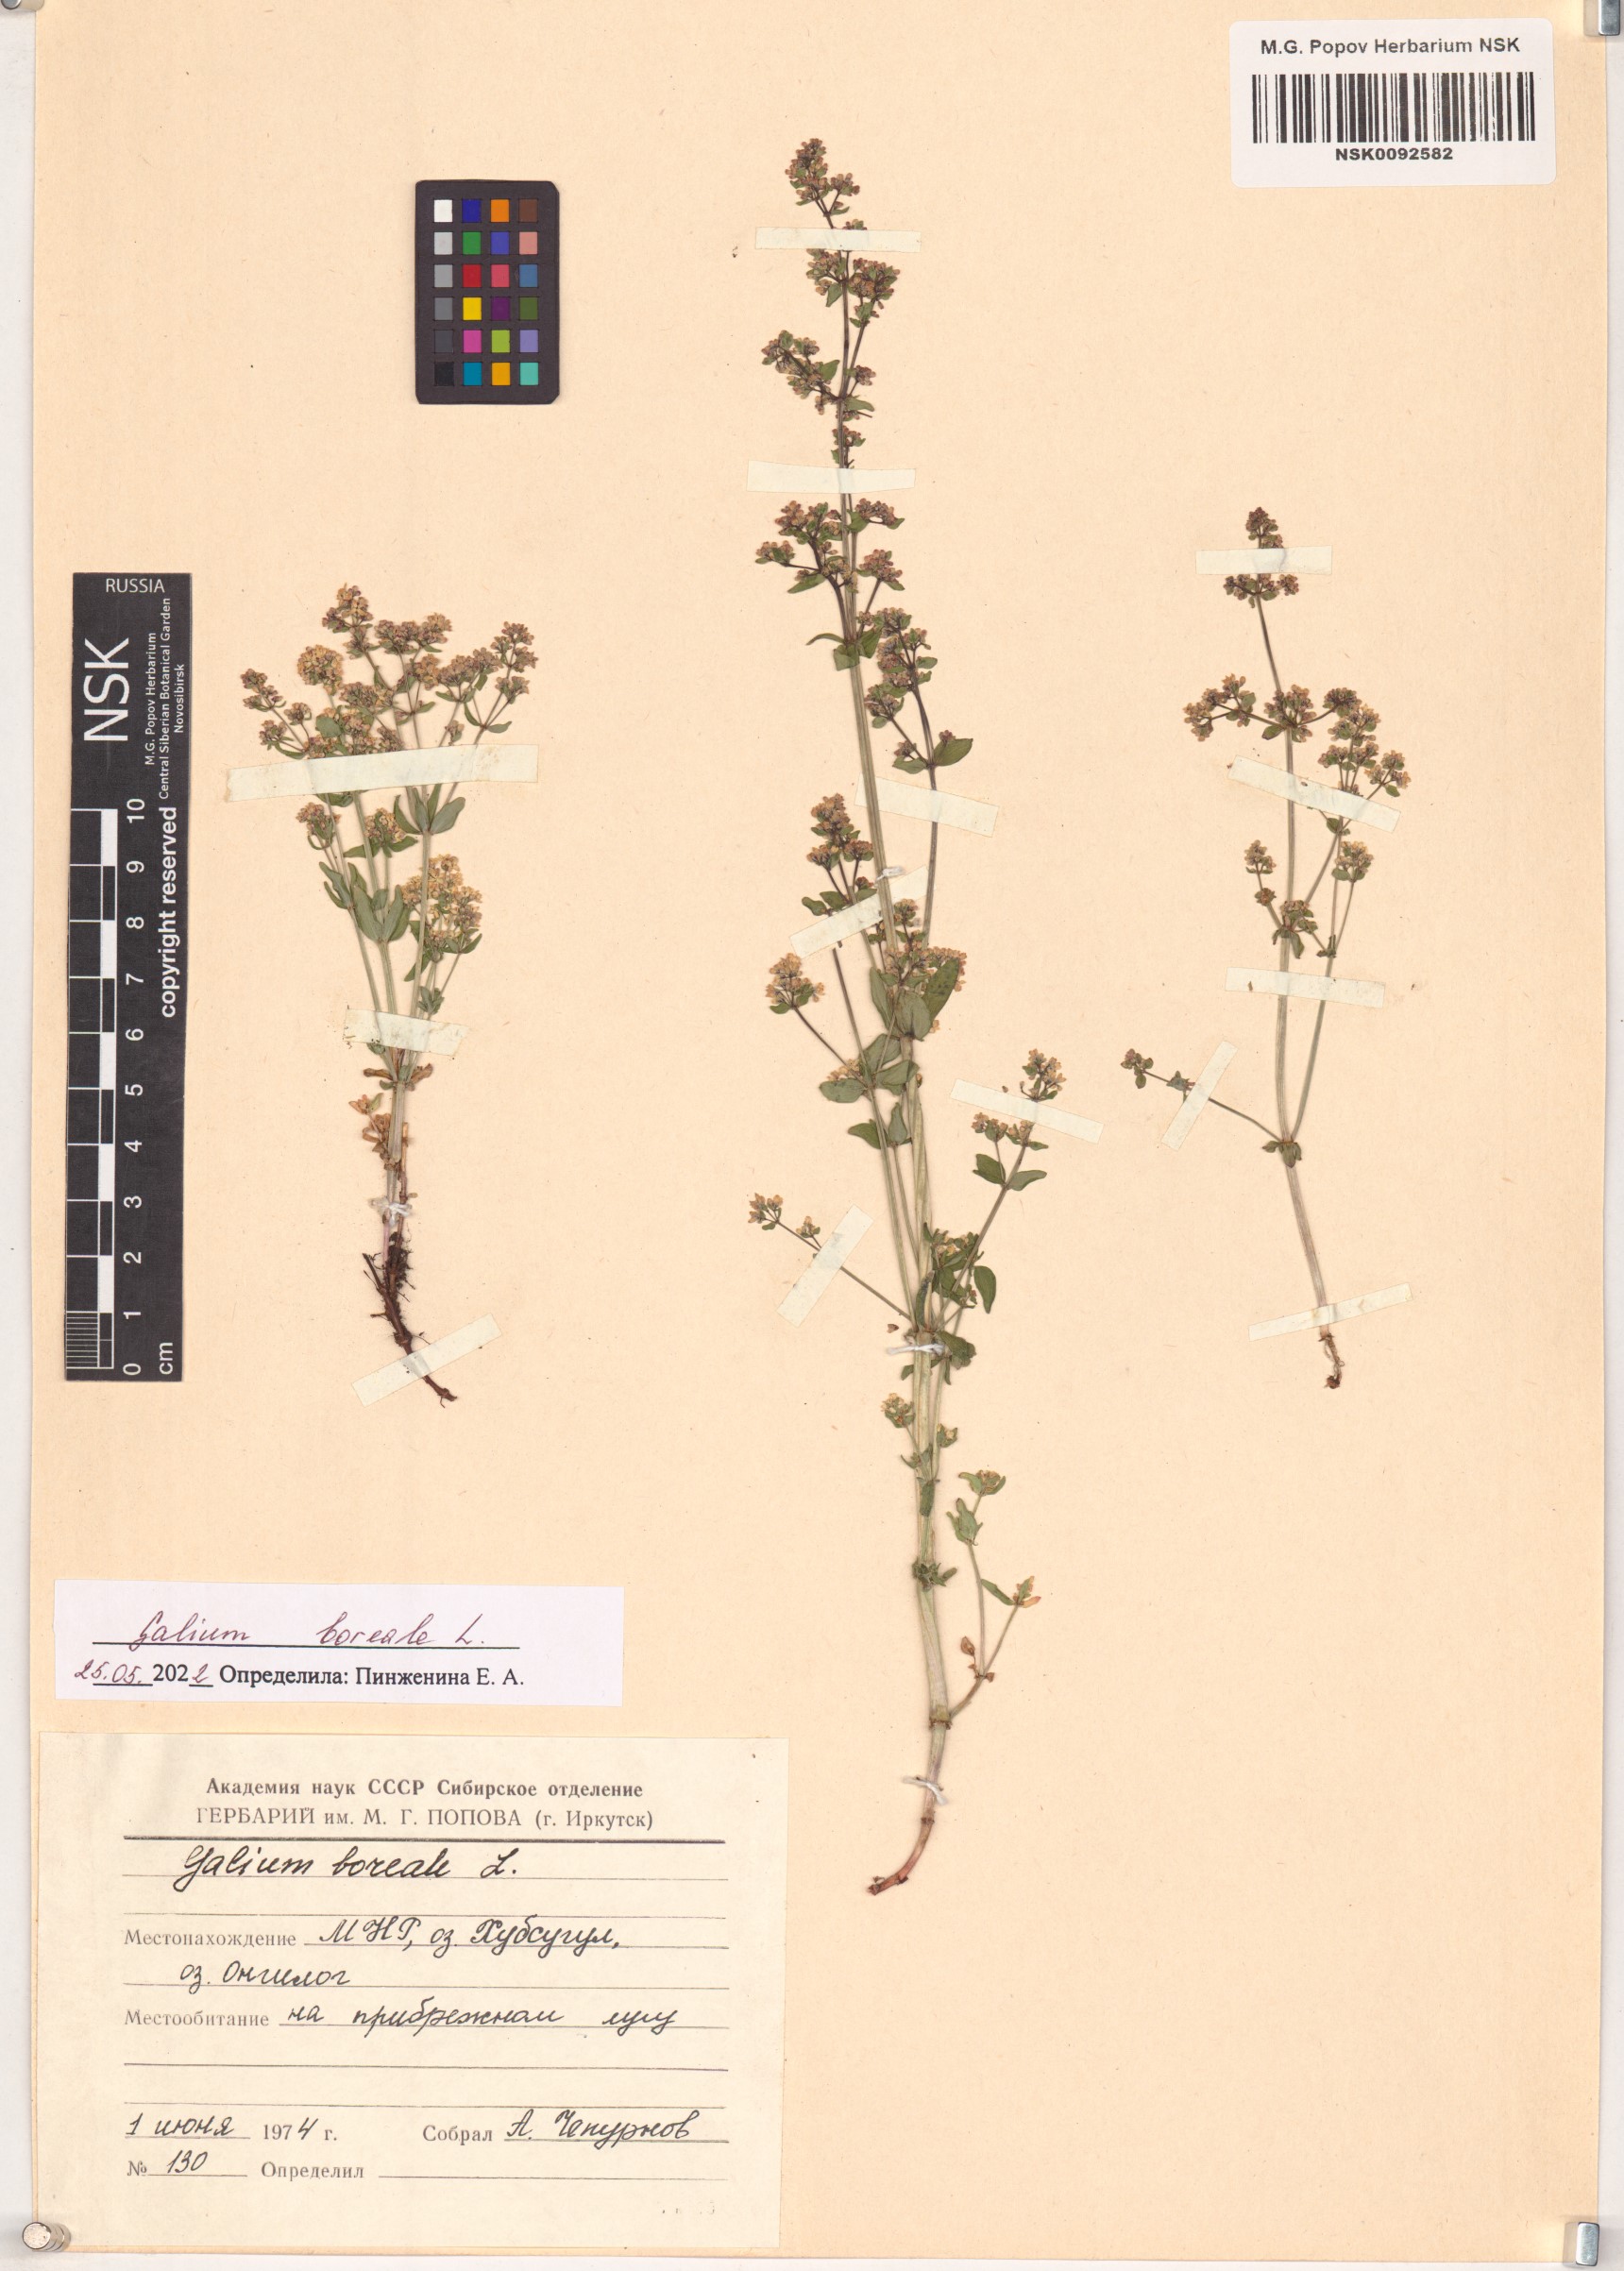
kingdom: Plantae
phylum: Tracheophyta
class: Magnoliopsida
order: Gentianales
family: Rubiaceae
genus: Galium
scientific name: Galium boreale
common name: Northern bedstraw
